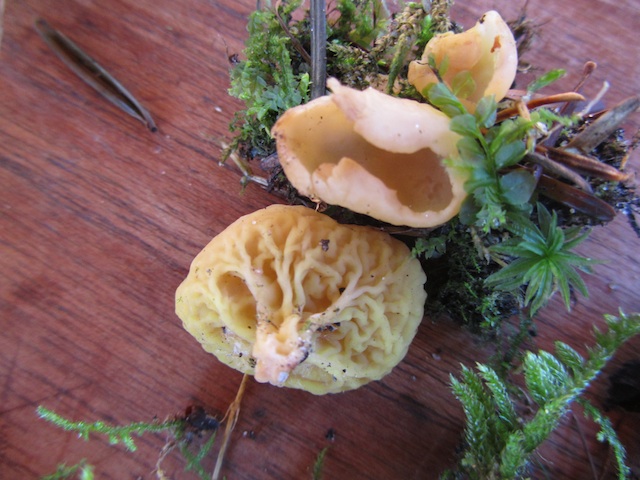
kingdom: Fungi
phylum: Ascomycota
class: Pezizomycetes
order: Pezizales
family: Otideaceae
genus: Otidea
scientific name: Otidea phlebophora
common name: året ørebæger
